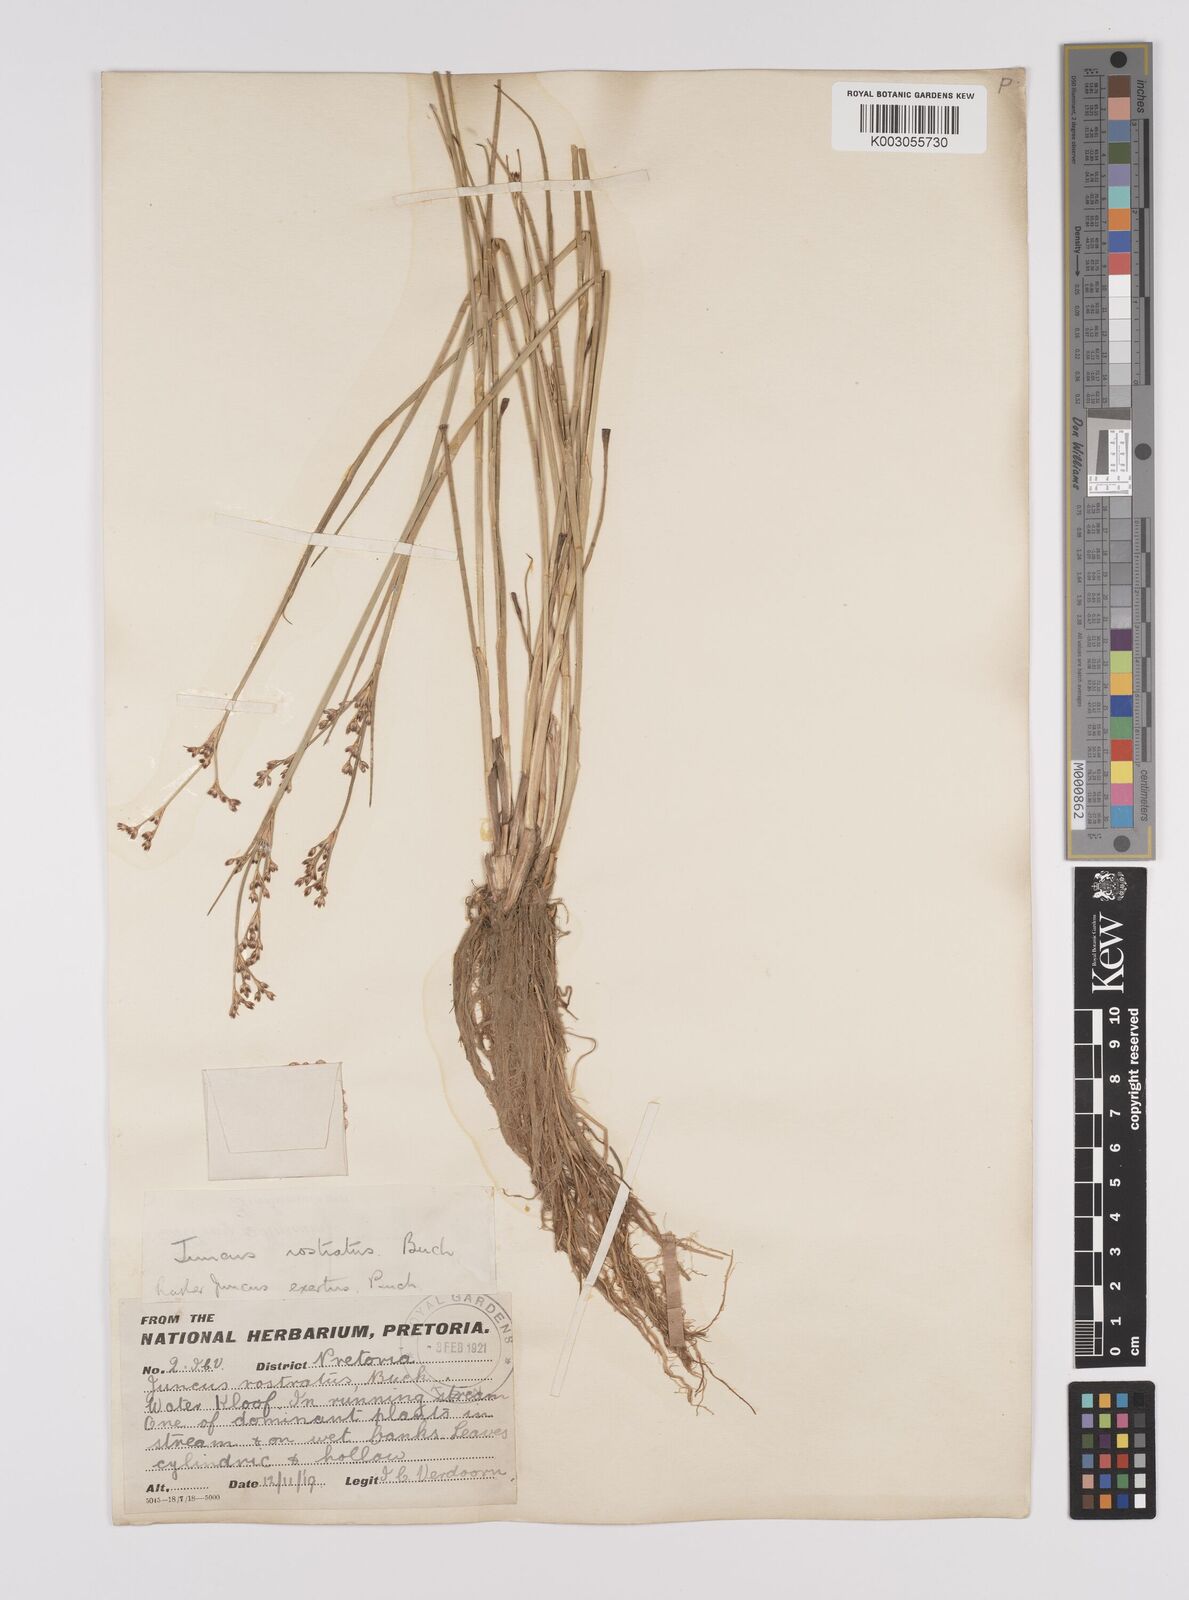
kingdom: Plantae
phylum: Tracheophyta
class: Liliopsida
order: Poales
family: Juncaceae
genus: Juncus
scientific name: Juncus exsertus
